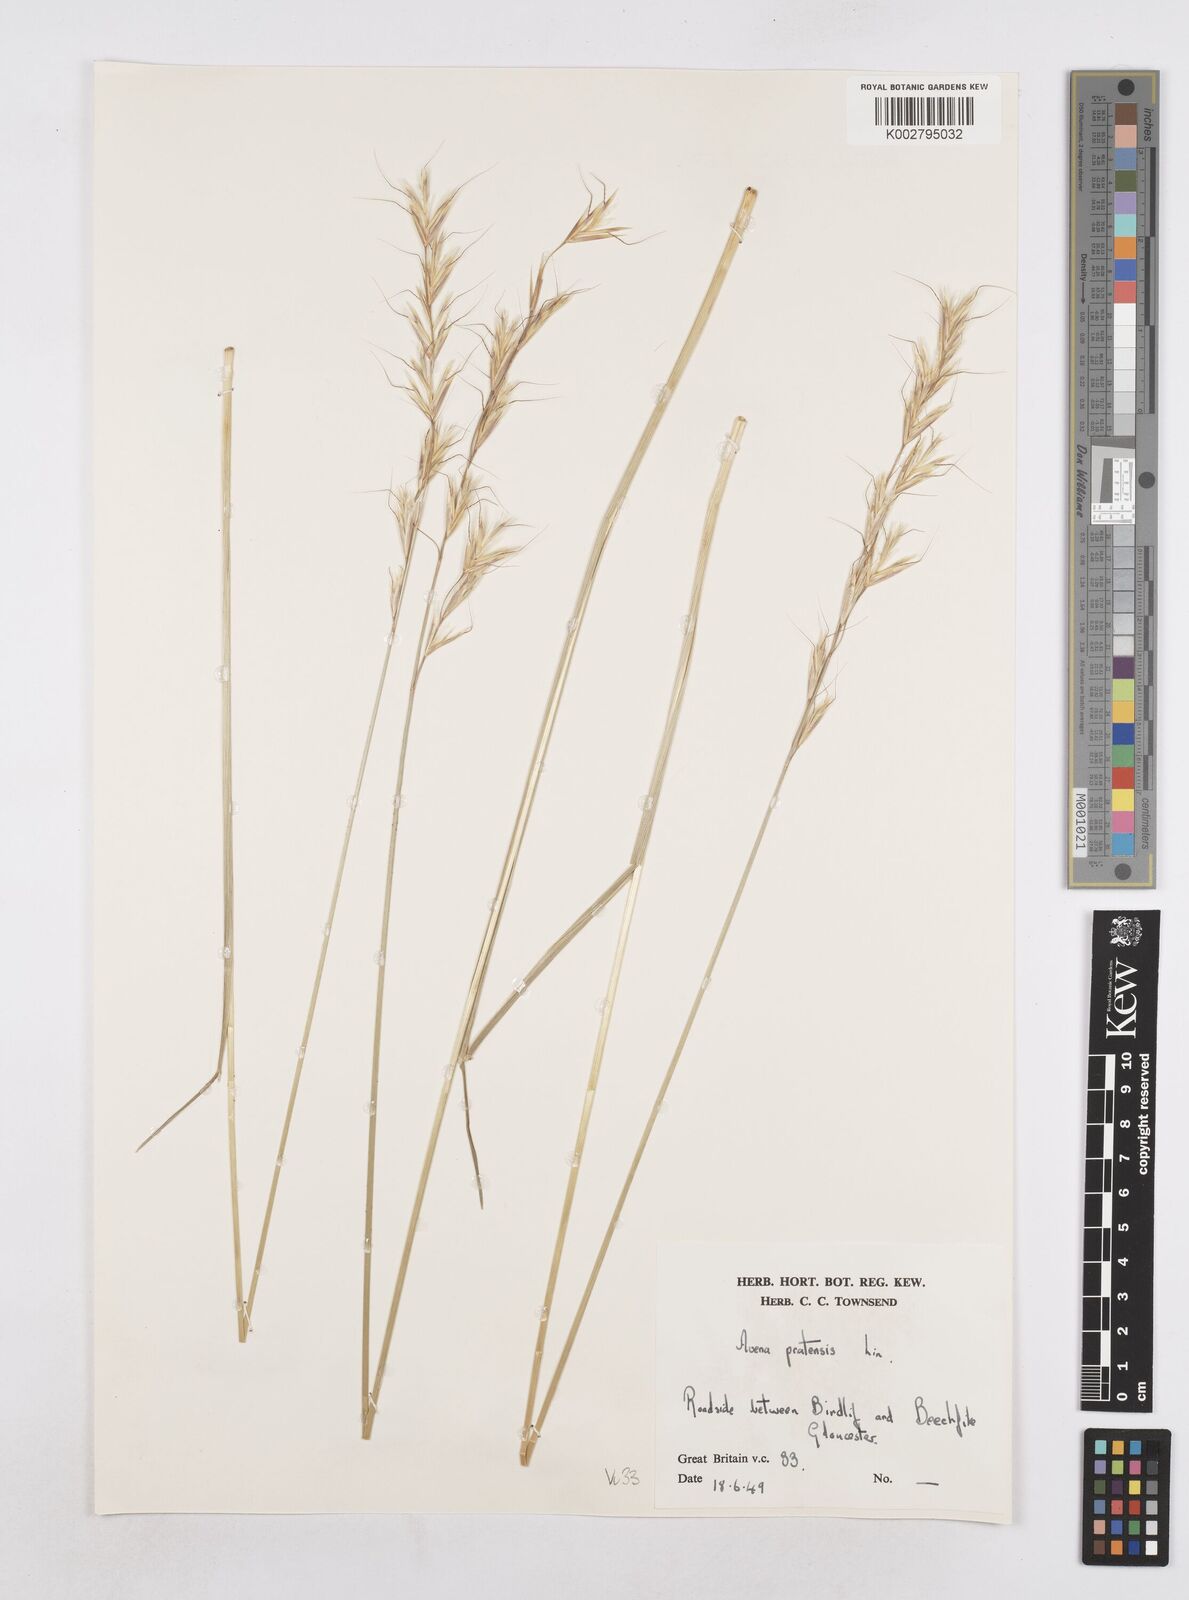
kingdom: Plantae
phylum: Tracheophyta
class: Liliopsida
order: Poales
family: Poaceae
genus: Helictochloa
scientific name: Helictochloa pratensis
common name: Meadow oat grass
